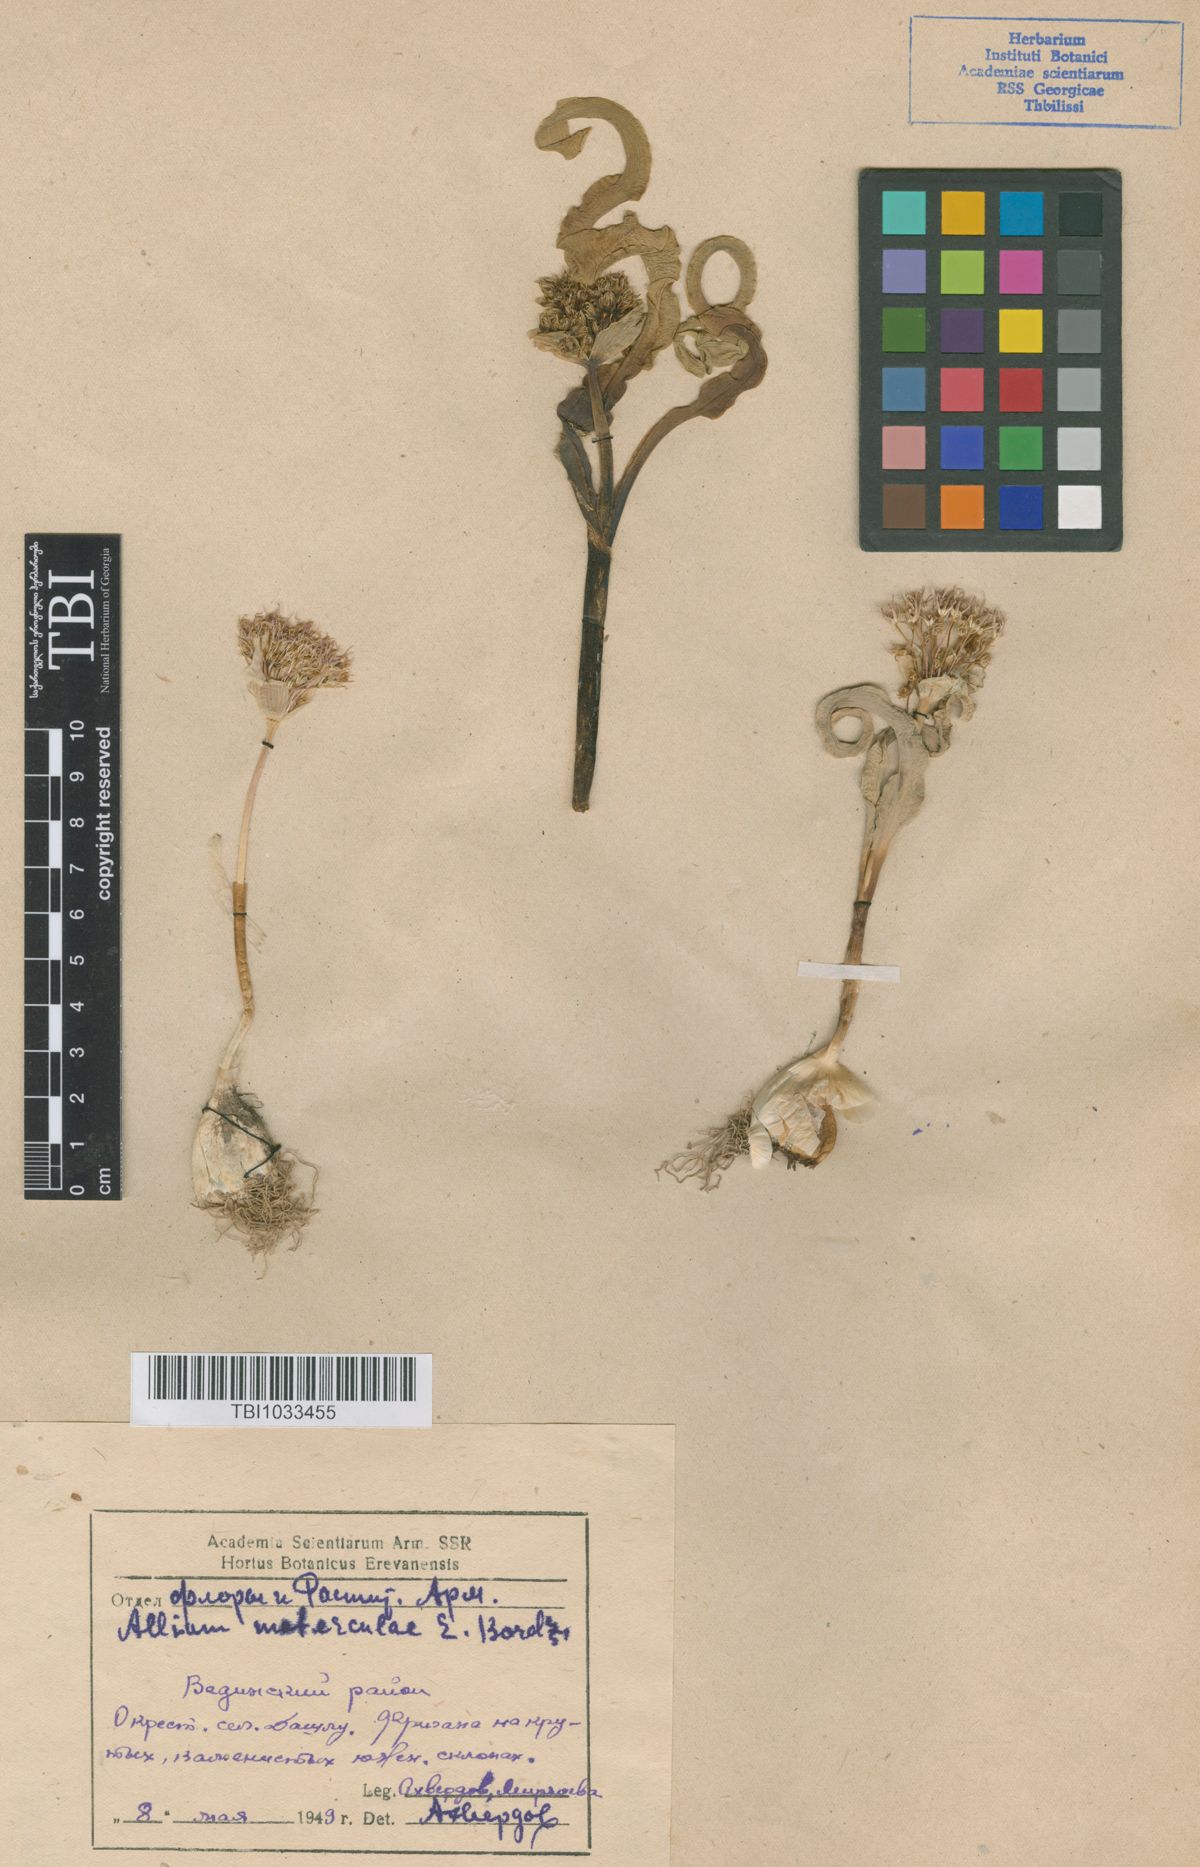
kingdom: Plantae
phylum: Tracheophyta
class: Liliopsida
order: Asparagales
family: Amaryllidaceae
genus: Allium
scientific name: Allium materculae
